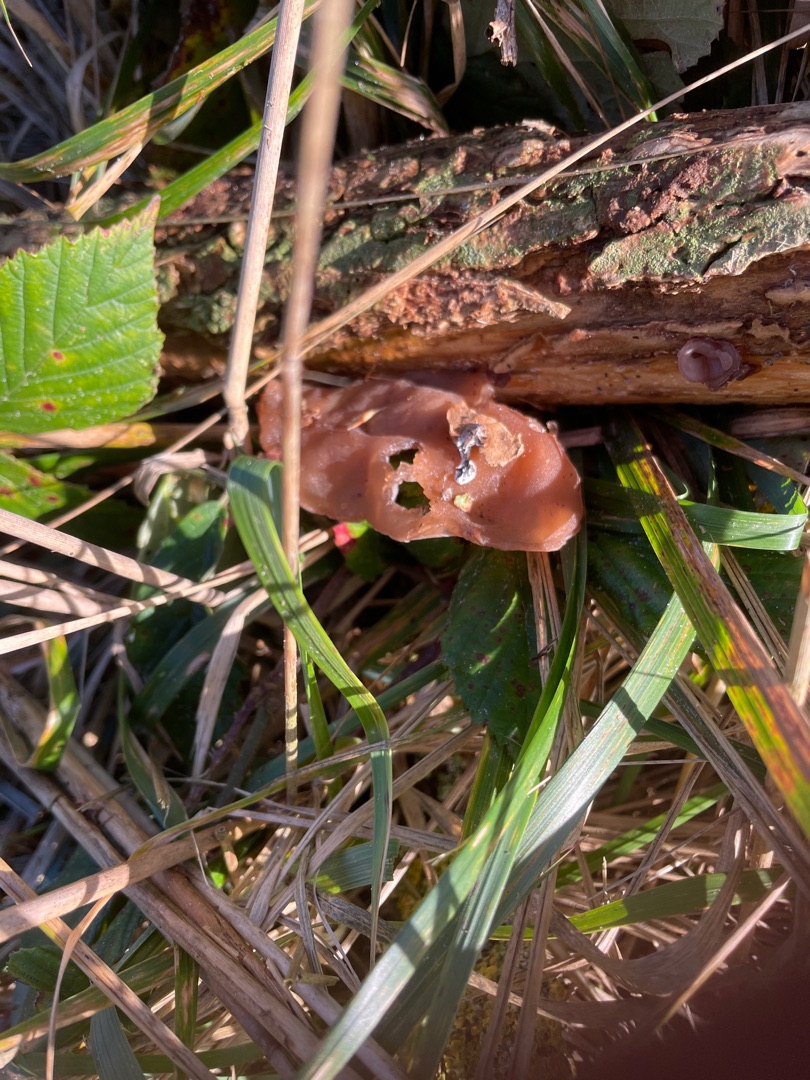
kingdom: Fungi
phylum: Basidiomycota
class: Agaricomycetes
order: Auriculariales
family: Auriculariaceae
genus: Auricularia
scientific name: Auricularia auricula-judae
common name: Almindelig judasøre
